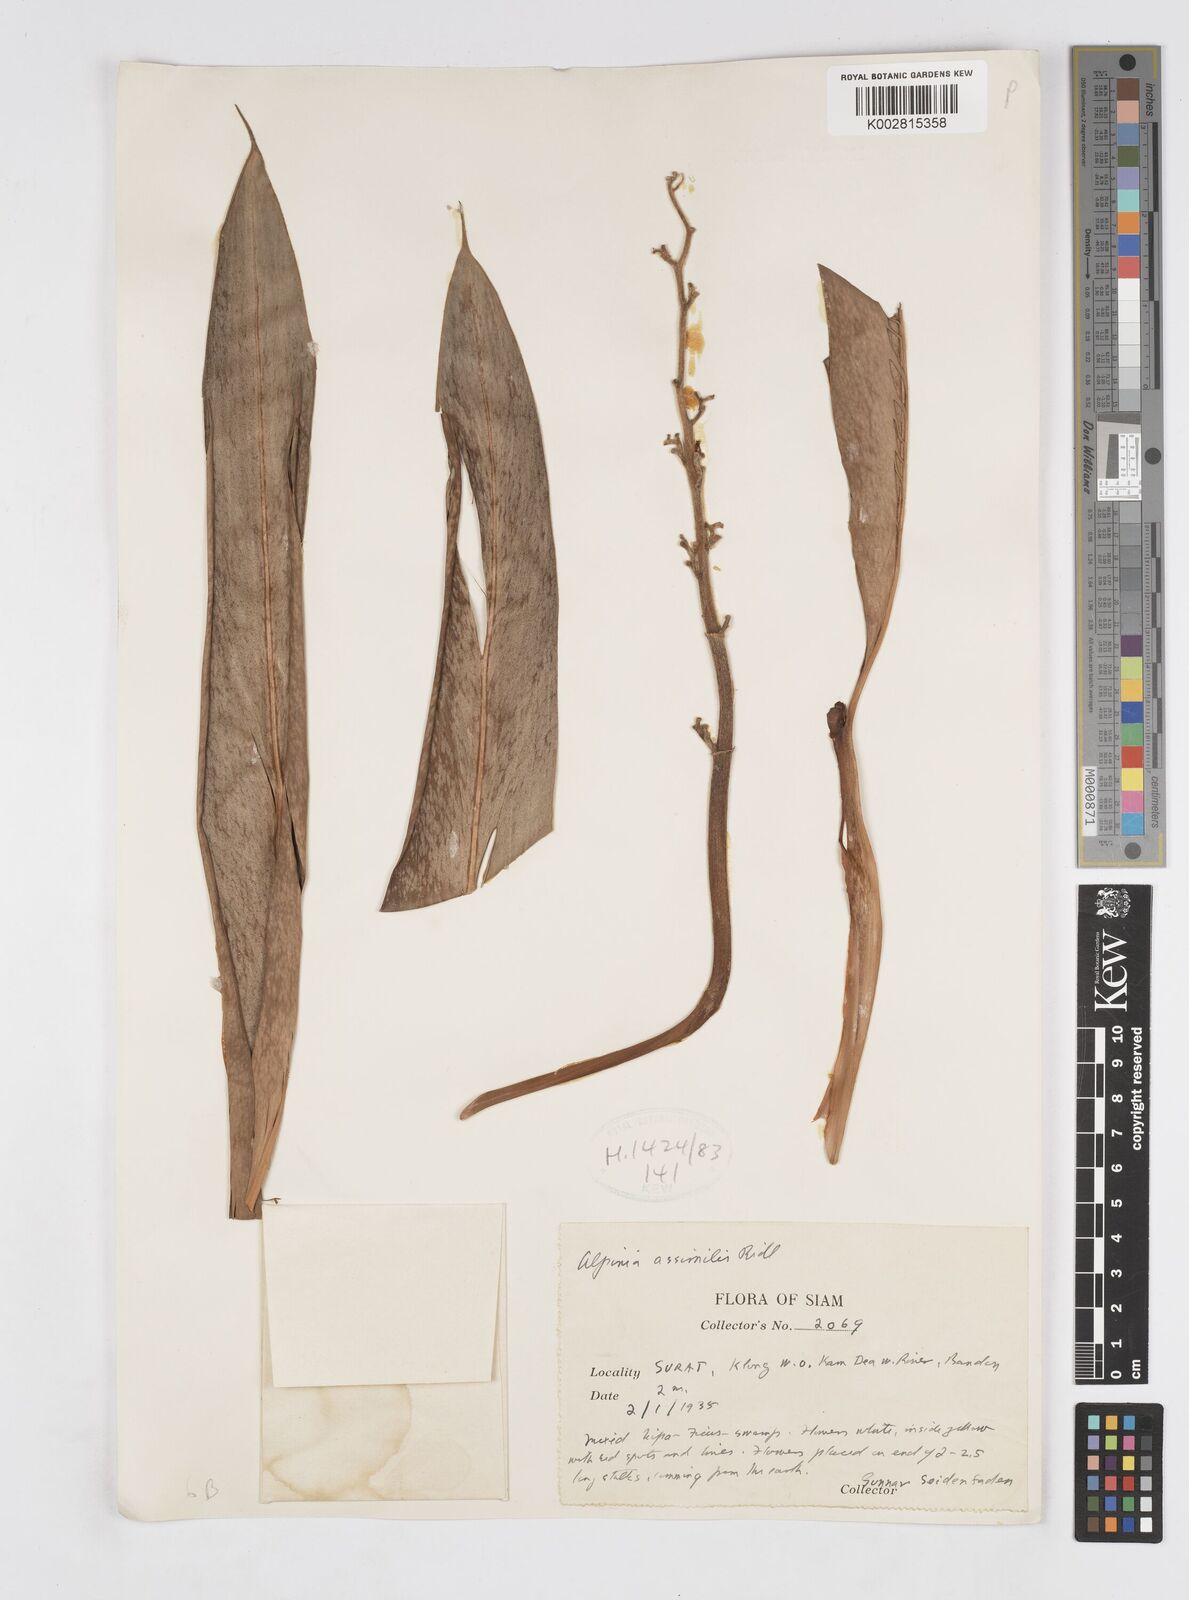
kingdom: Plantae
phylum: Tracheophyta
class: Liliopsida
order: Zingiberales
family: Zingiberaceae
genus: Alpinia
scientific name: Alpinia assimilis
